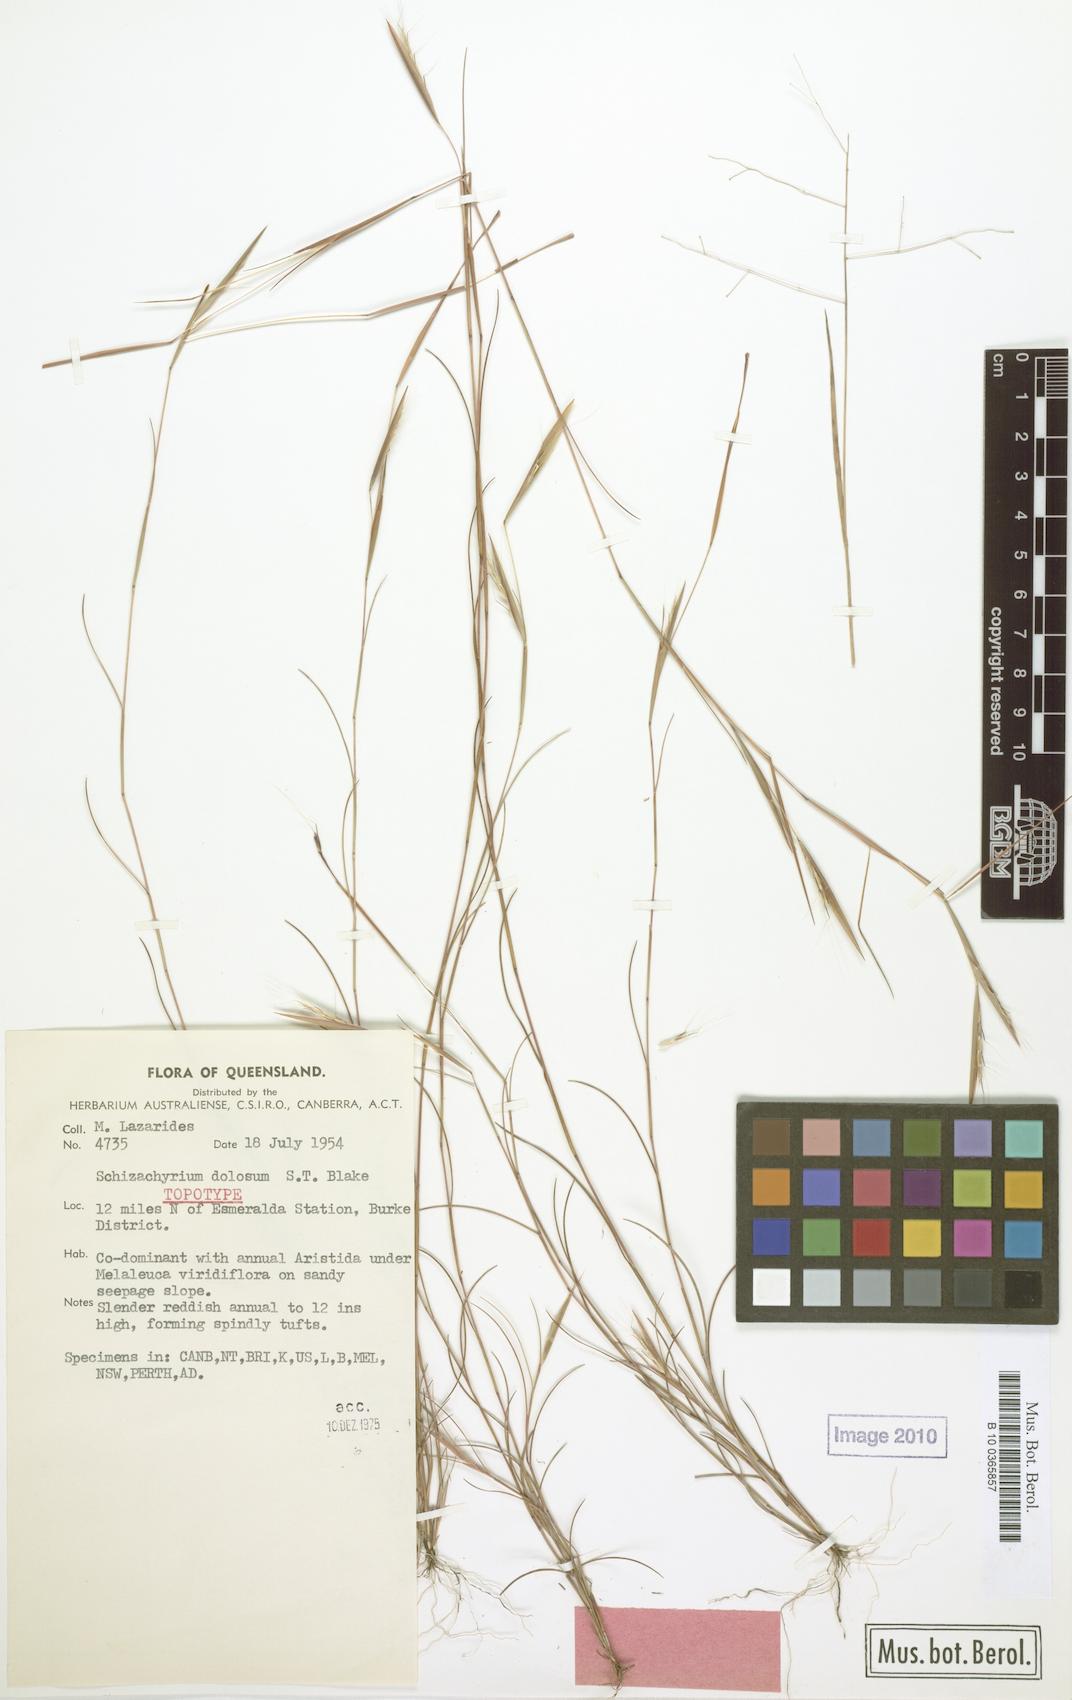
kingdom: Plantae
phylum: Tracheophyta
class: Liliopsida
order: Poales
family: Poaceae
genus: Schizachyrium
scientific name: Schizachyrium dolosum
